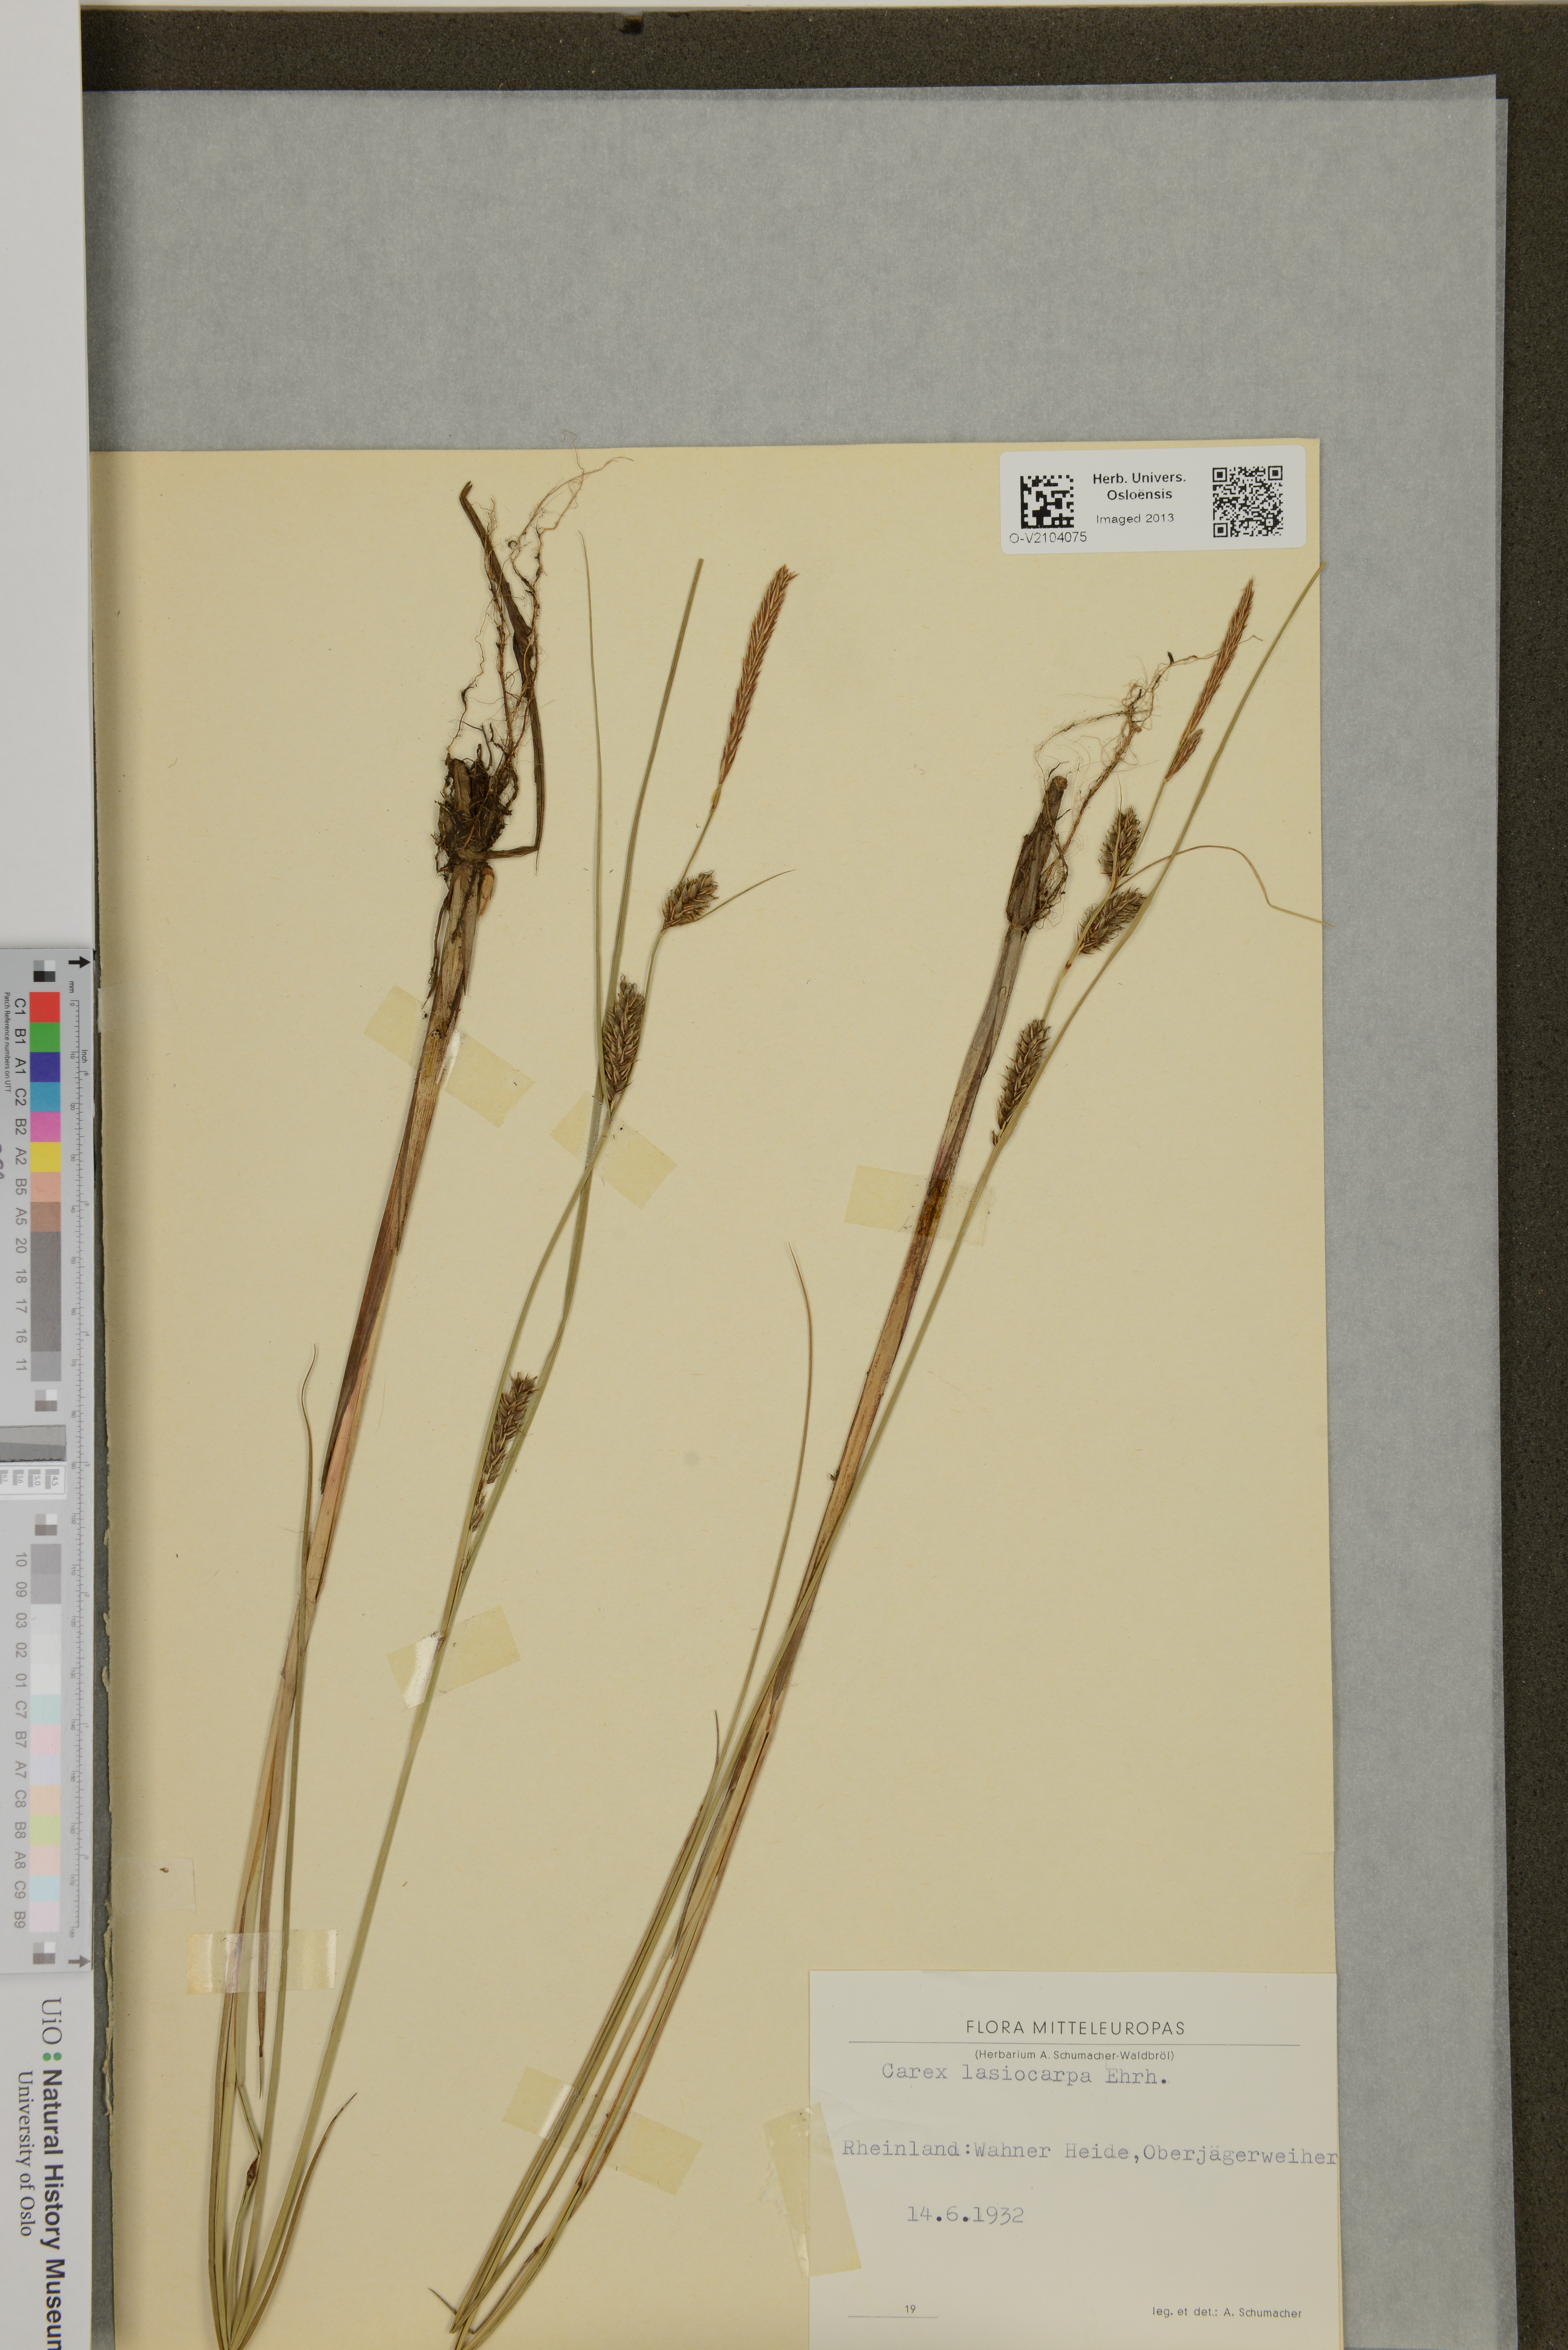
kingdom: Plantae
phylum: Tracheophyta
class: Liliopsida
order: Poales
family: Cyperaceae
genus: Carex
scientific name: Carex lasiocarpa
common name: Slender sedge
